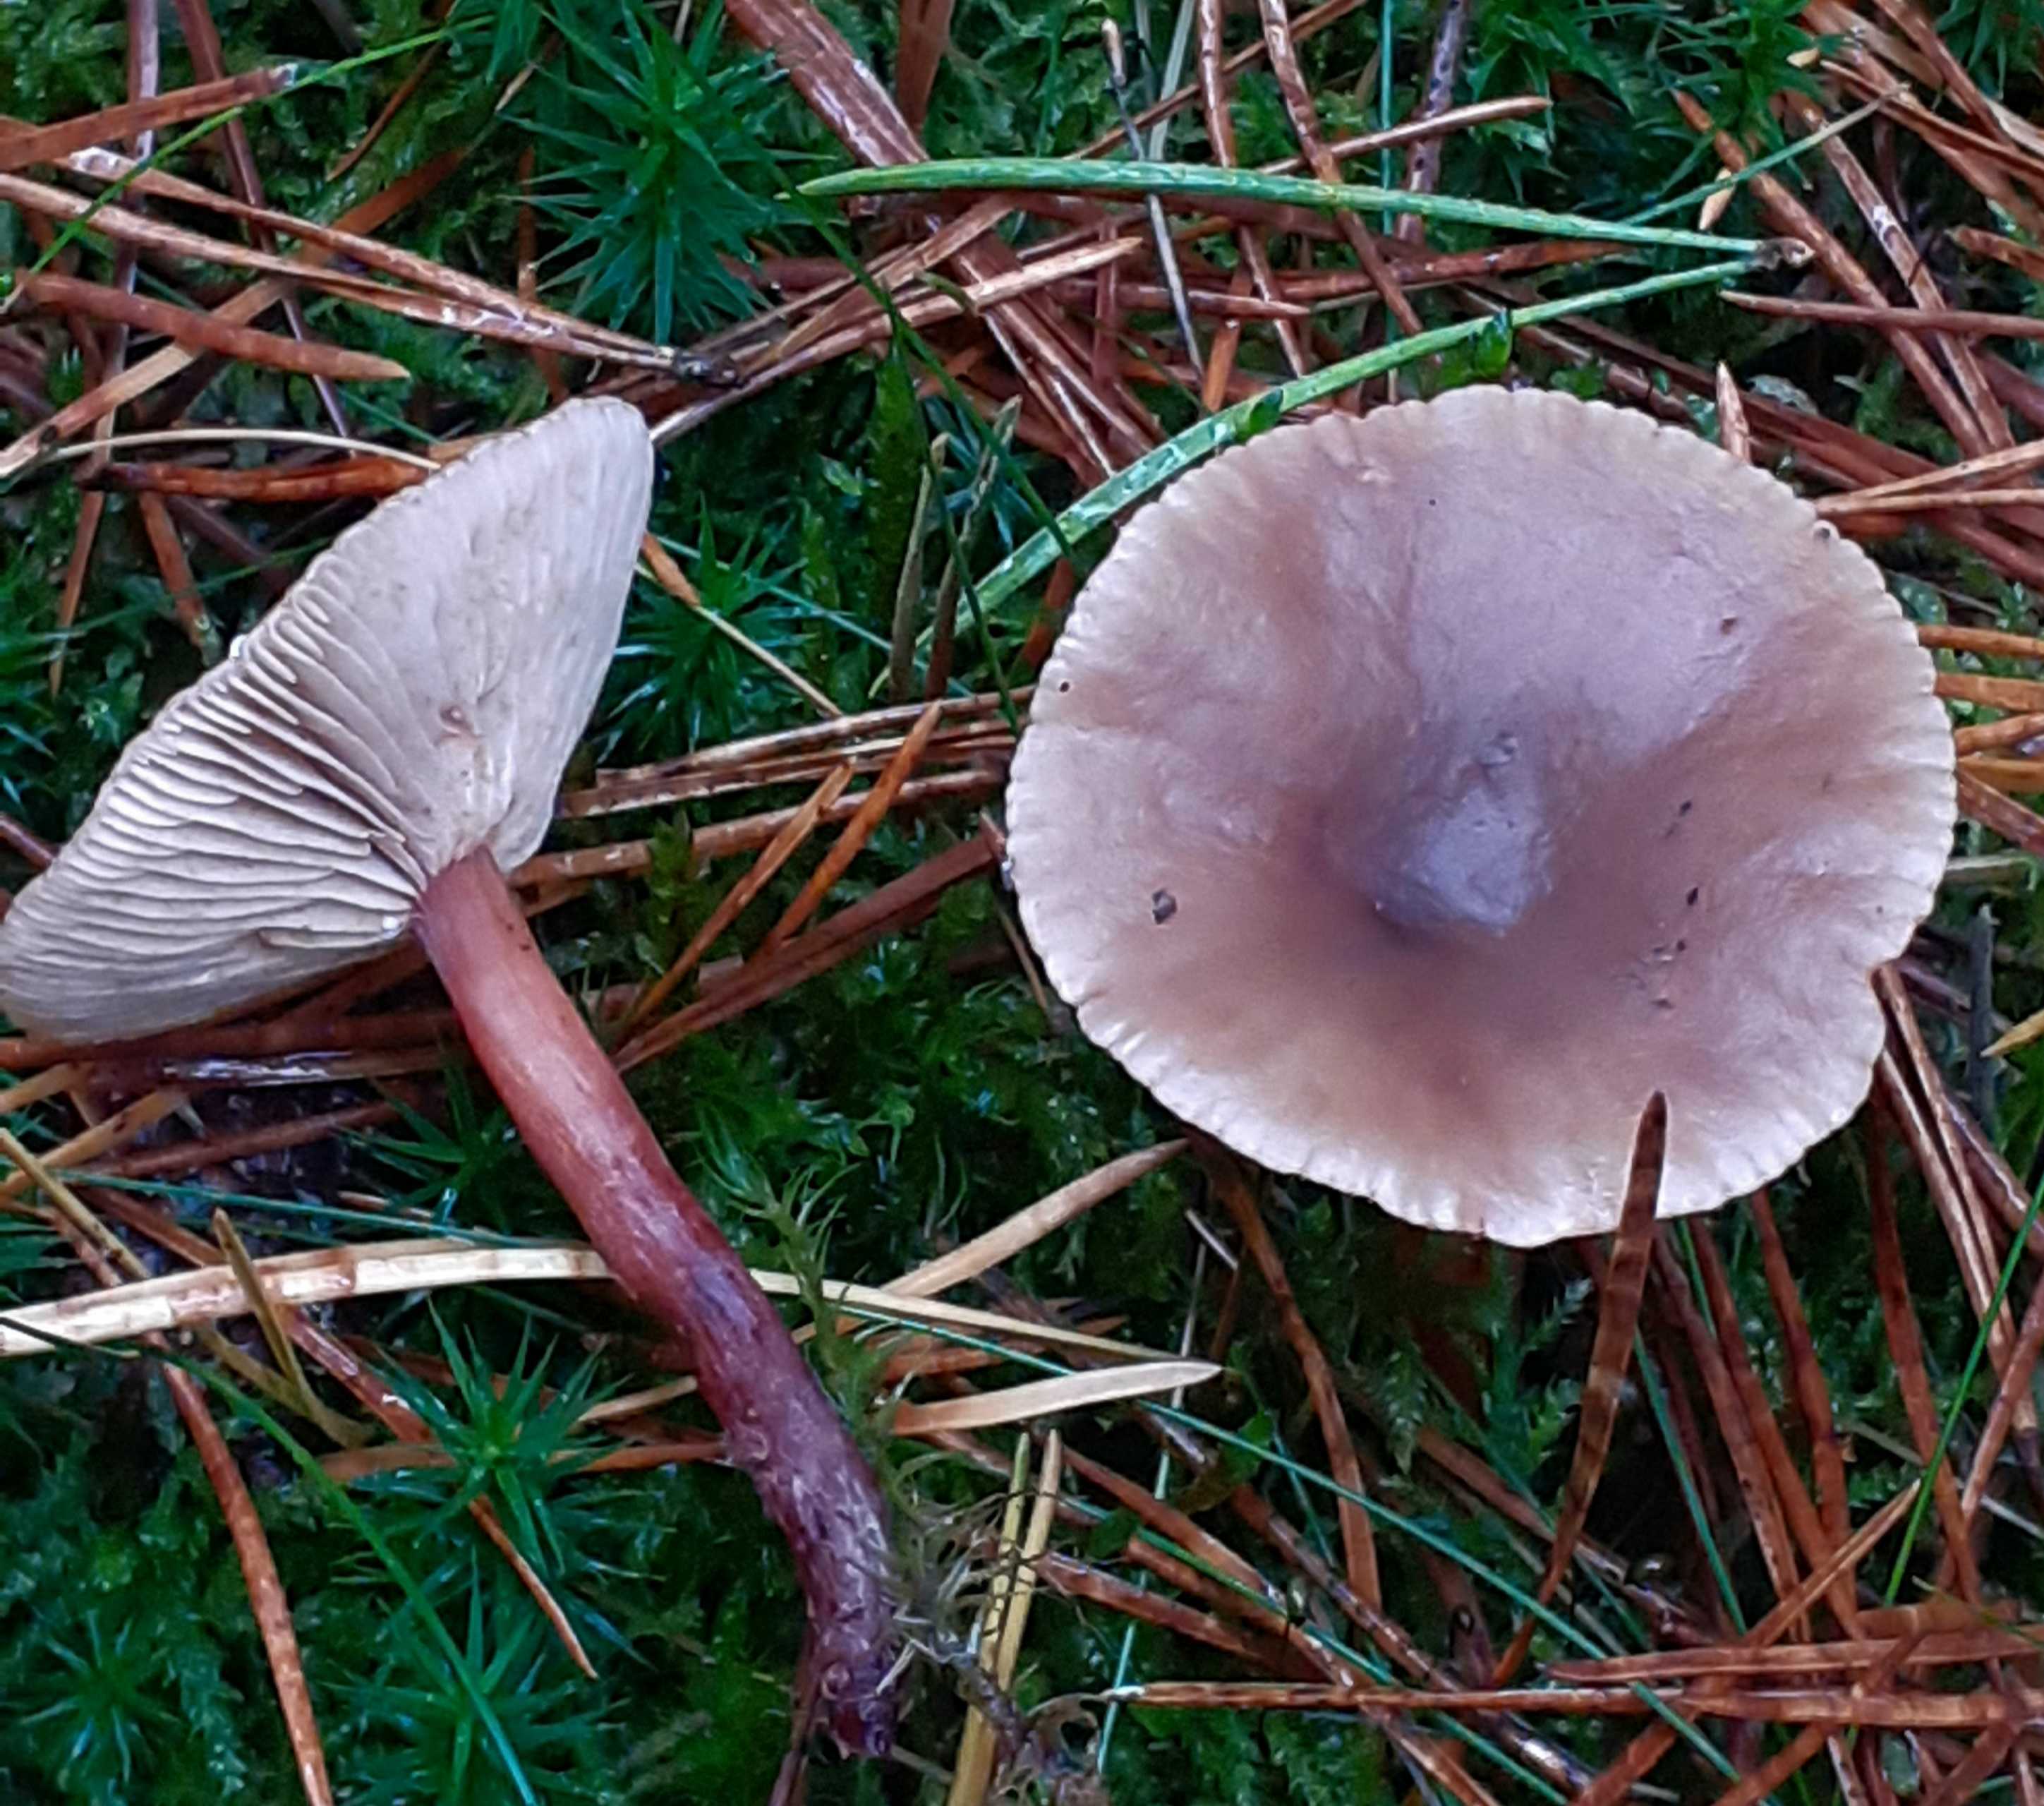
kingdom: Fungi
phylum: Basidiomycota
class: Agaricomycetes
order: Russulales
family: Russulaceae
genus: Lactarius
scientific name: Lactarius hepaticus
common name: leverbrun mælkehat
